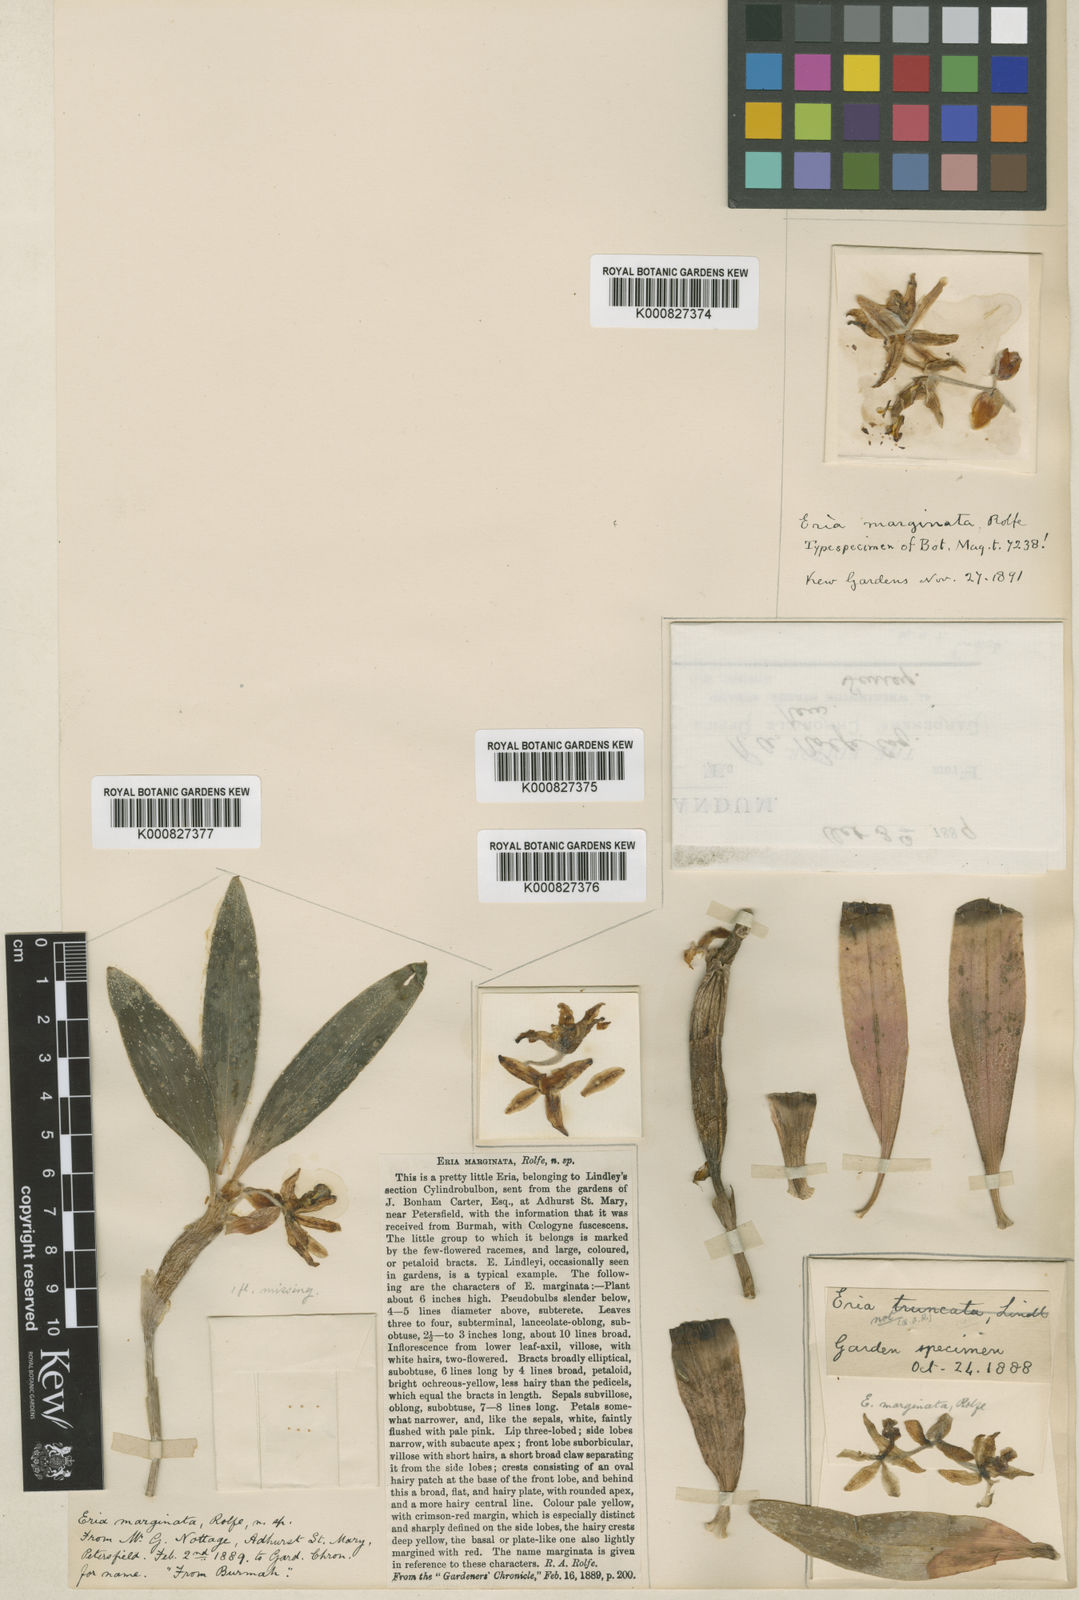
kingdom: Plantae
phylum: Tracheophyta
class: Liliopsida
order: Asparagales
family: Orchidaceae
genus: Cylindrolobus
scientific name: Cylindrolobus marginatus
